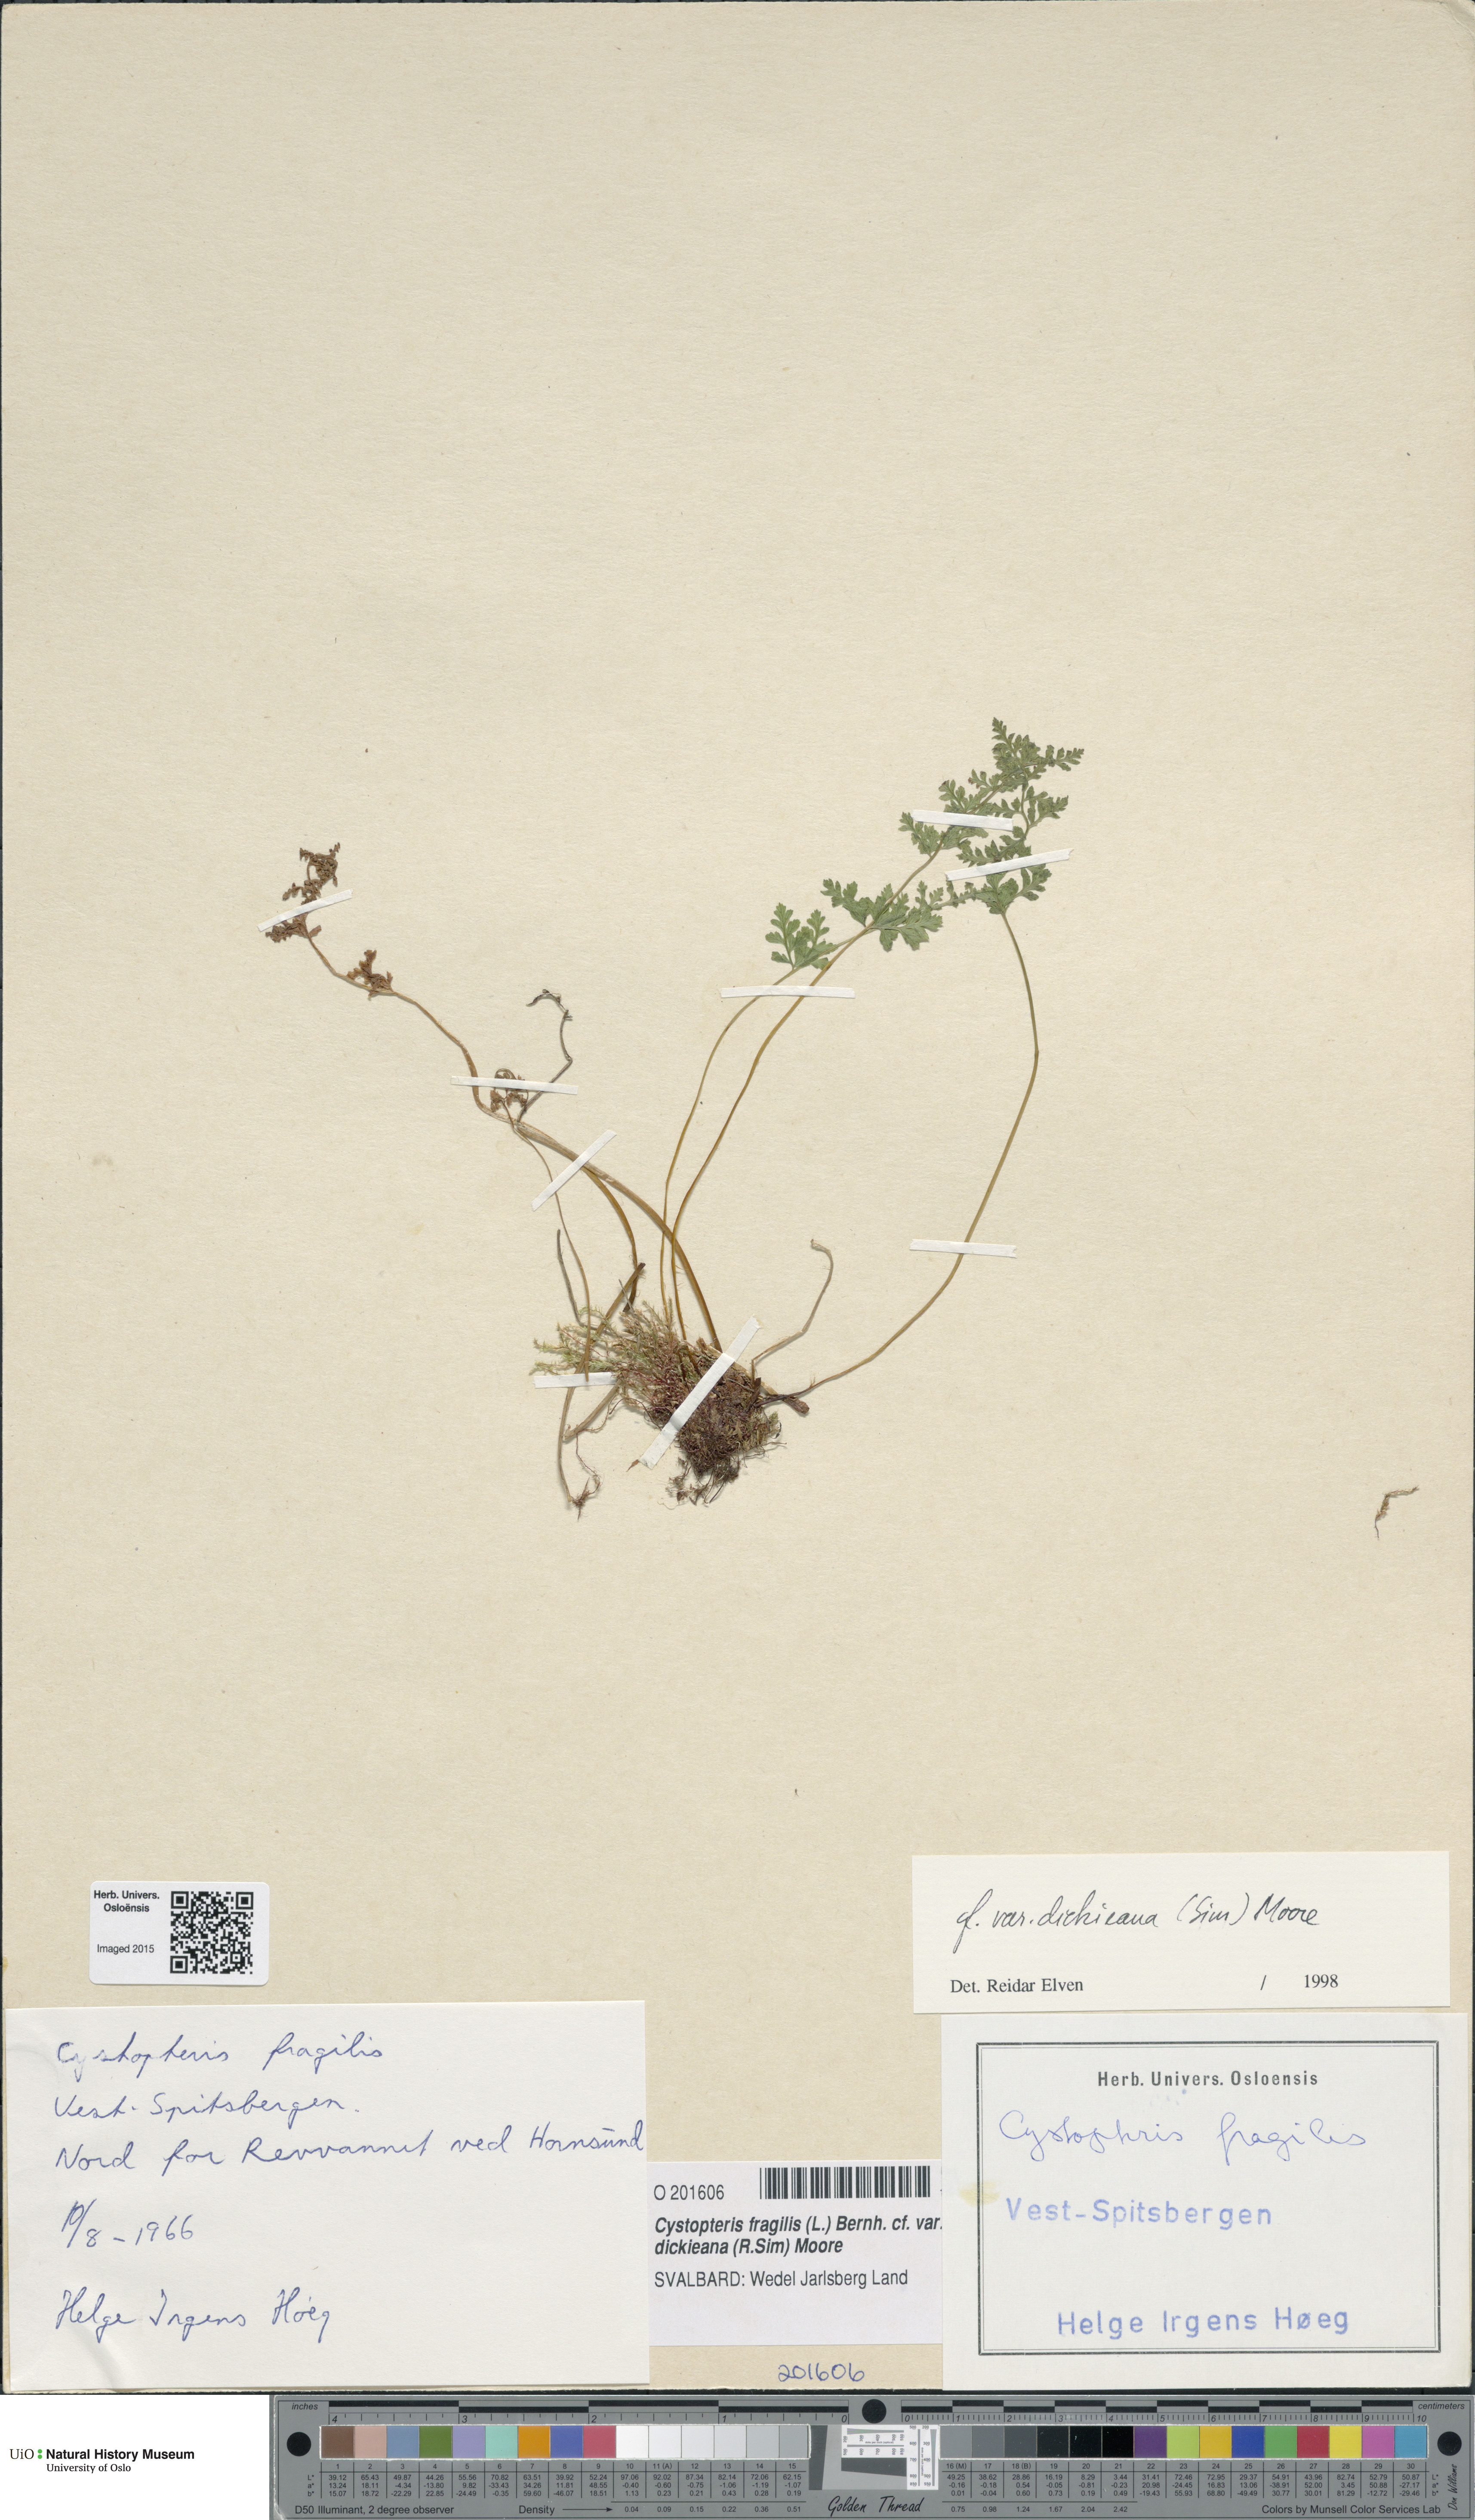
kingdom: Plantae
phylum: Tracheophyta
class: Polypodiopsida
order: Polypodiales
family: Cystopteridaceae
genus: Cystopteris
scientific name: Cystopteris dickieana
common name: Dickie's bladder-fern
